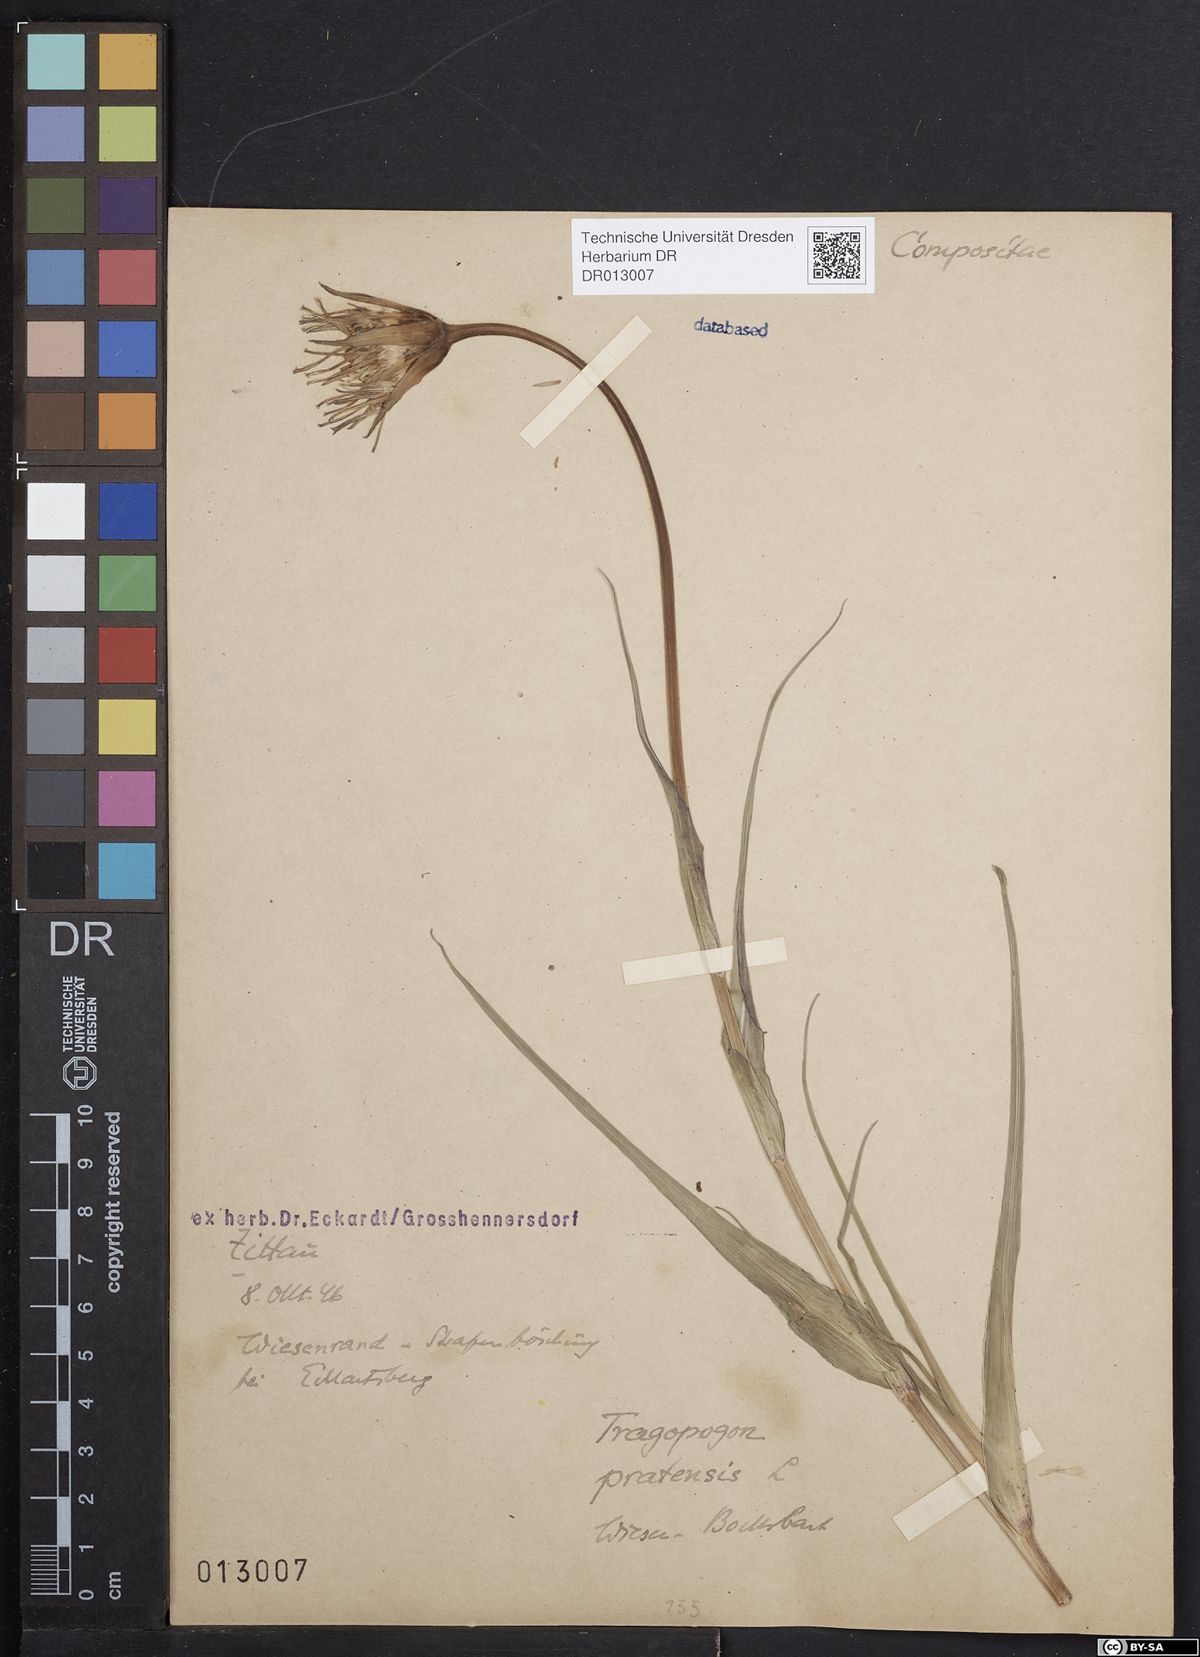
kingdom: Plantae
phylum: Tracheophyta
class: Magnoliopsida
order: Asterales
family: Asteraceae
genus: Tragopogon
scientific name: Tragopogon pratensis
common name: Goat's-beard
